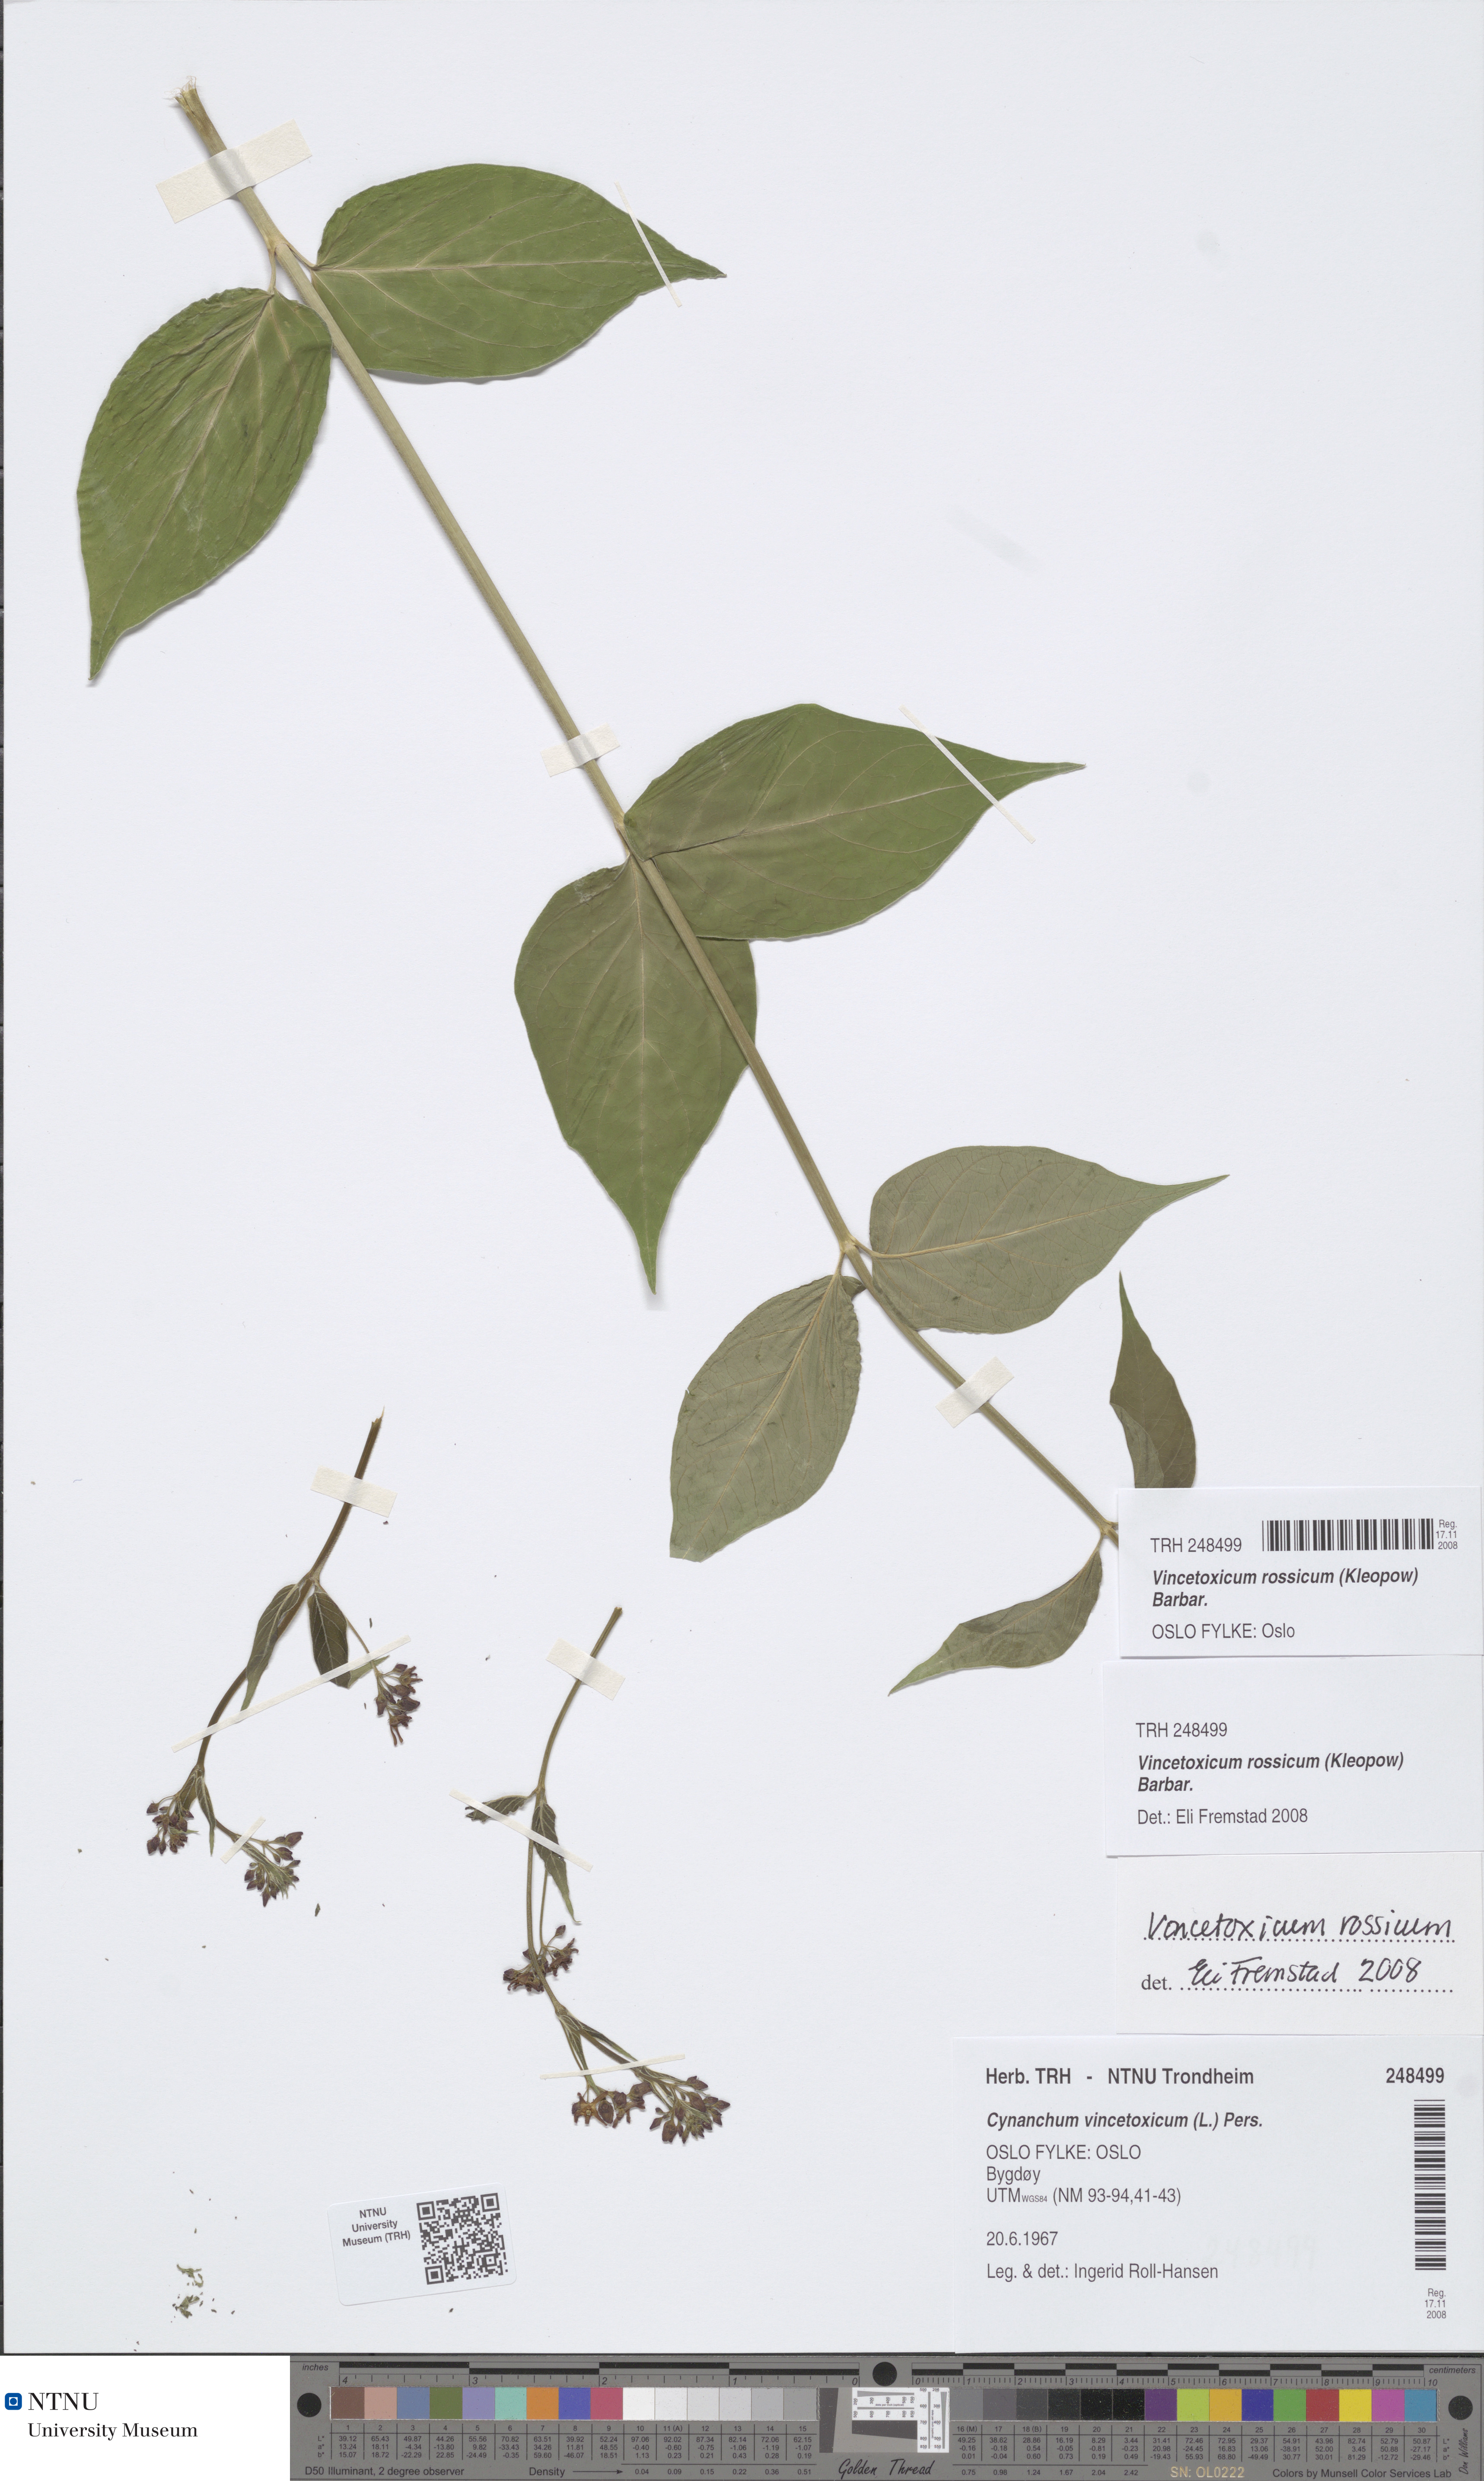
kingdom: Plantae
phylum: Tracheophyta
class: Magnoliopsida
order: Gentianales
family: Apocynaceae
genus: Vincetoxicum
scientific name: Vincetoxicum rossicum
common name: Dog-strangling vine
